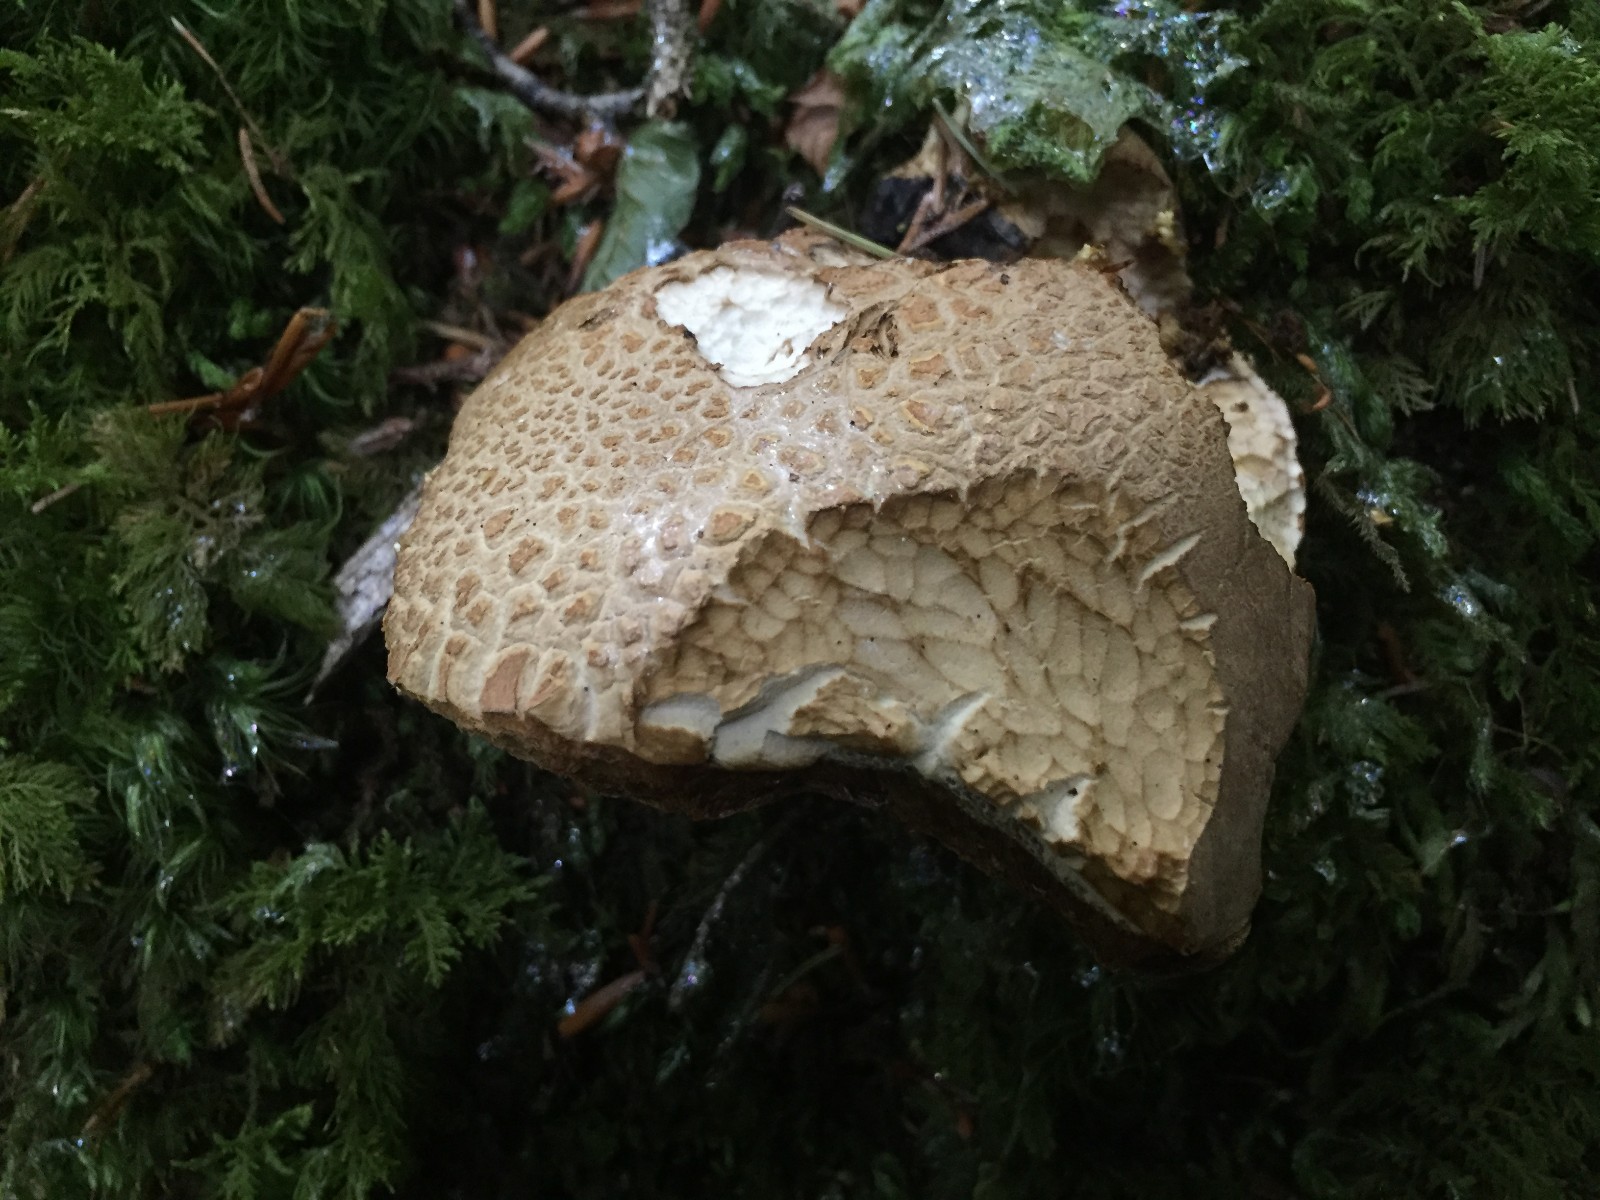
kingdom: Fungi
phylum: Basidiomycota
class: Agaricomycetes
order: Boletales
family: Boletaceae
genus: Boletus
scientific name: Boletus reticulatus
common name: sommer-rørhat
